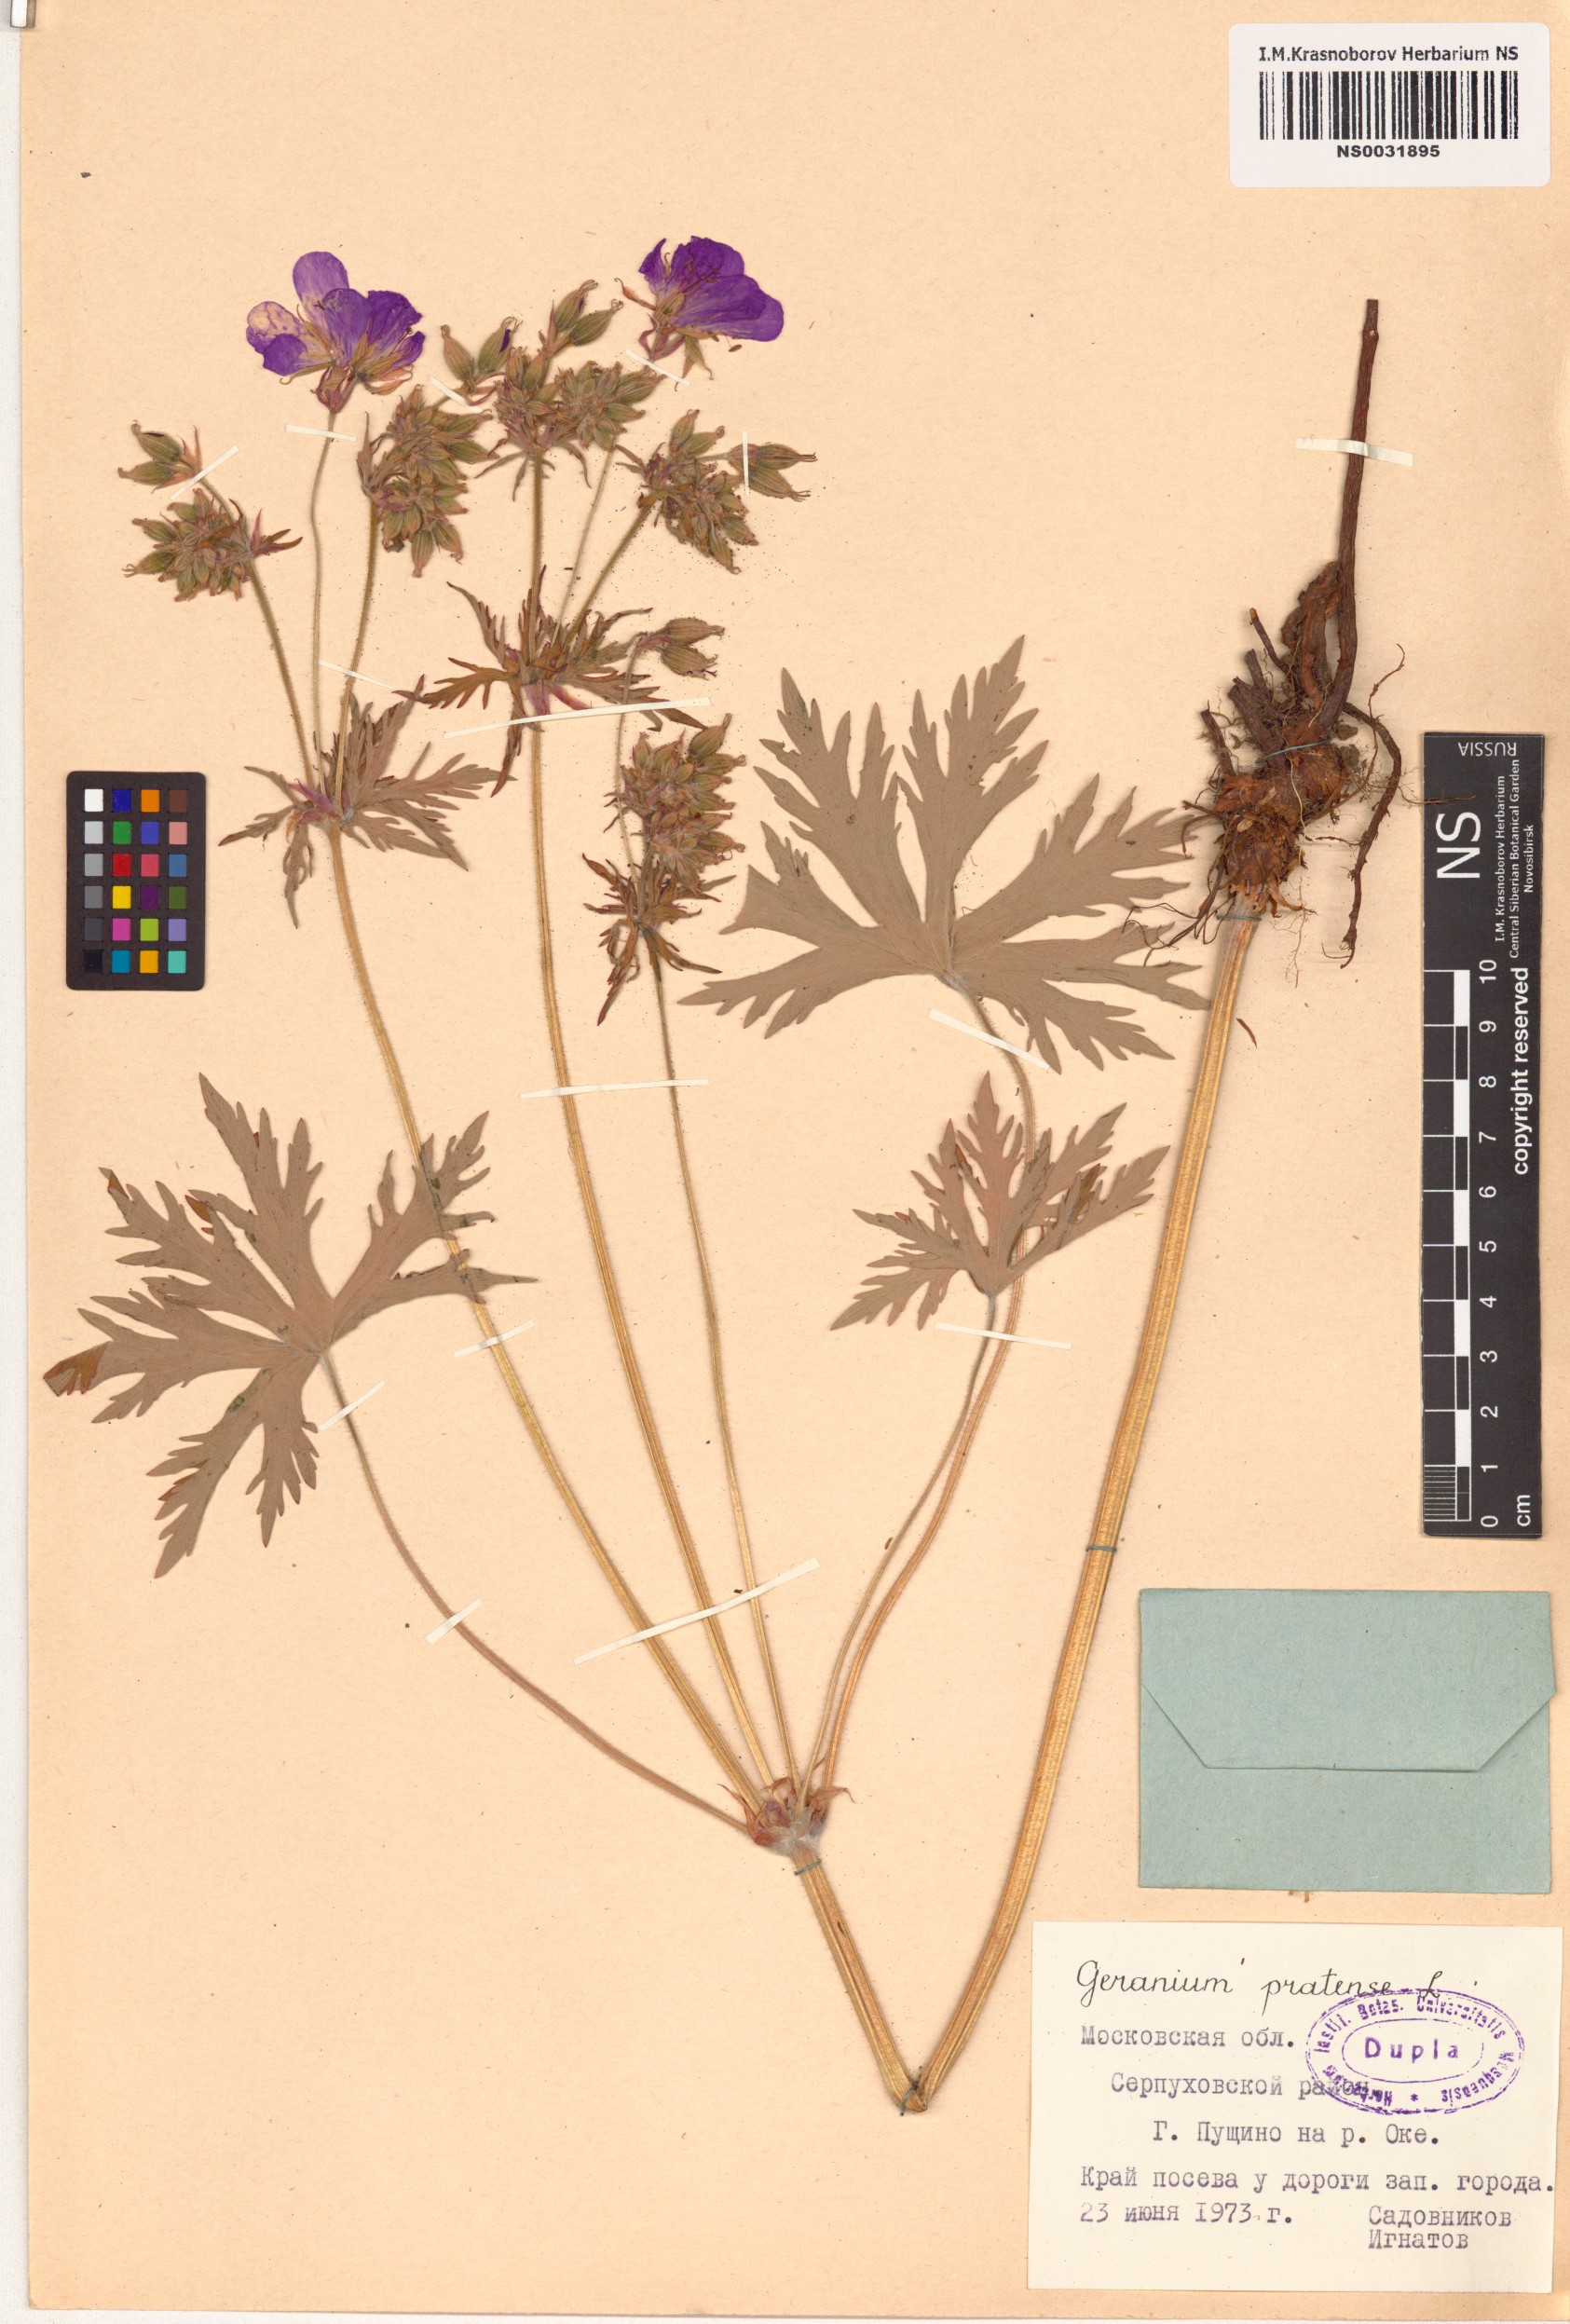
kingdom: Plantae
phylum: Tracheophyta
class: Magnoliopsida
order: Geraniales
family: Geraniaceae
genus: Geranium
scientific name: Geranium pratense
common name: Meadow crane's-bill
